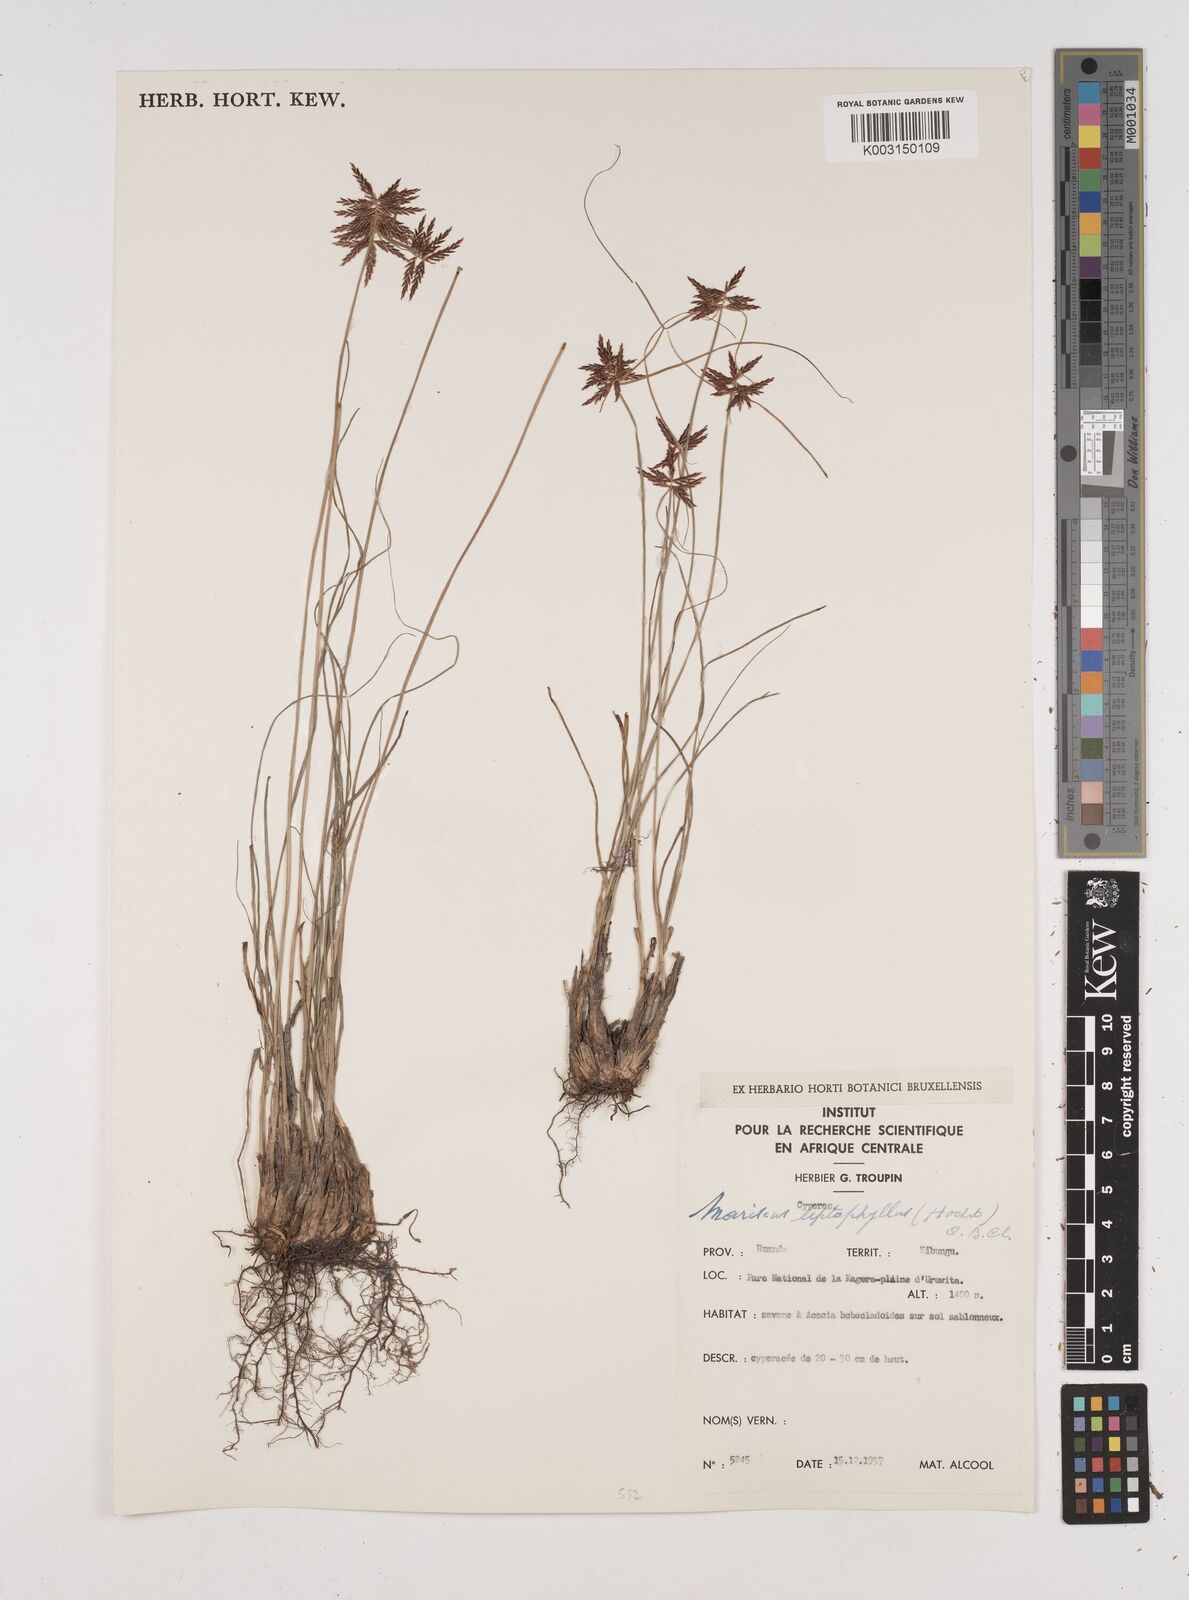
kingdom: Plantae
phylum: Tracheophyta
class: Liliopsida
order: Poales
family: Cyperaceae
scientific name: Cyperaceae
